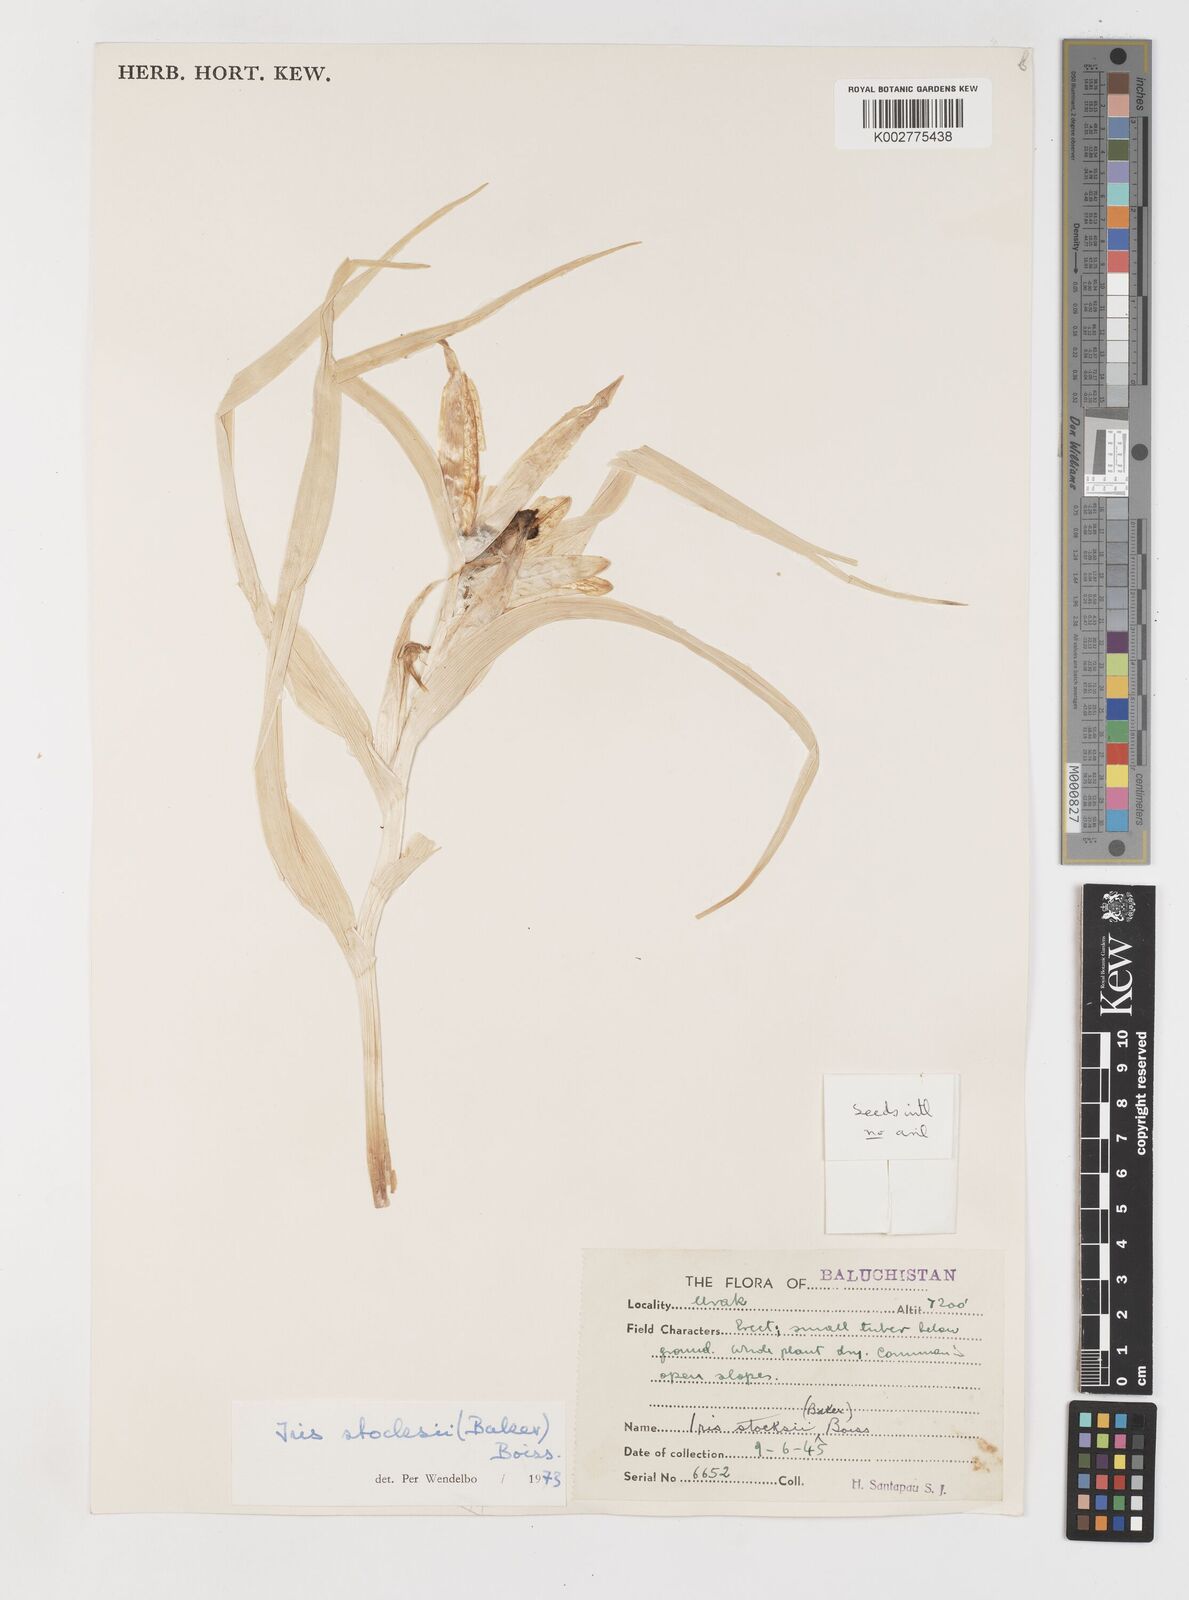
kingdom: Plantae
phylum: Tracheophyta
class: Liliopsida
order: Asparagales
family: Iridaceae
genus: Iris
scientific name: Iris stocksii
